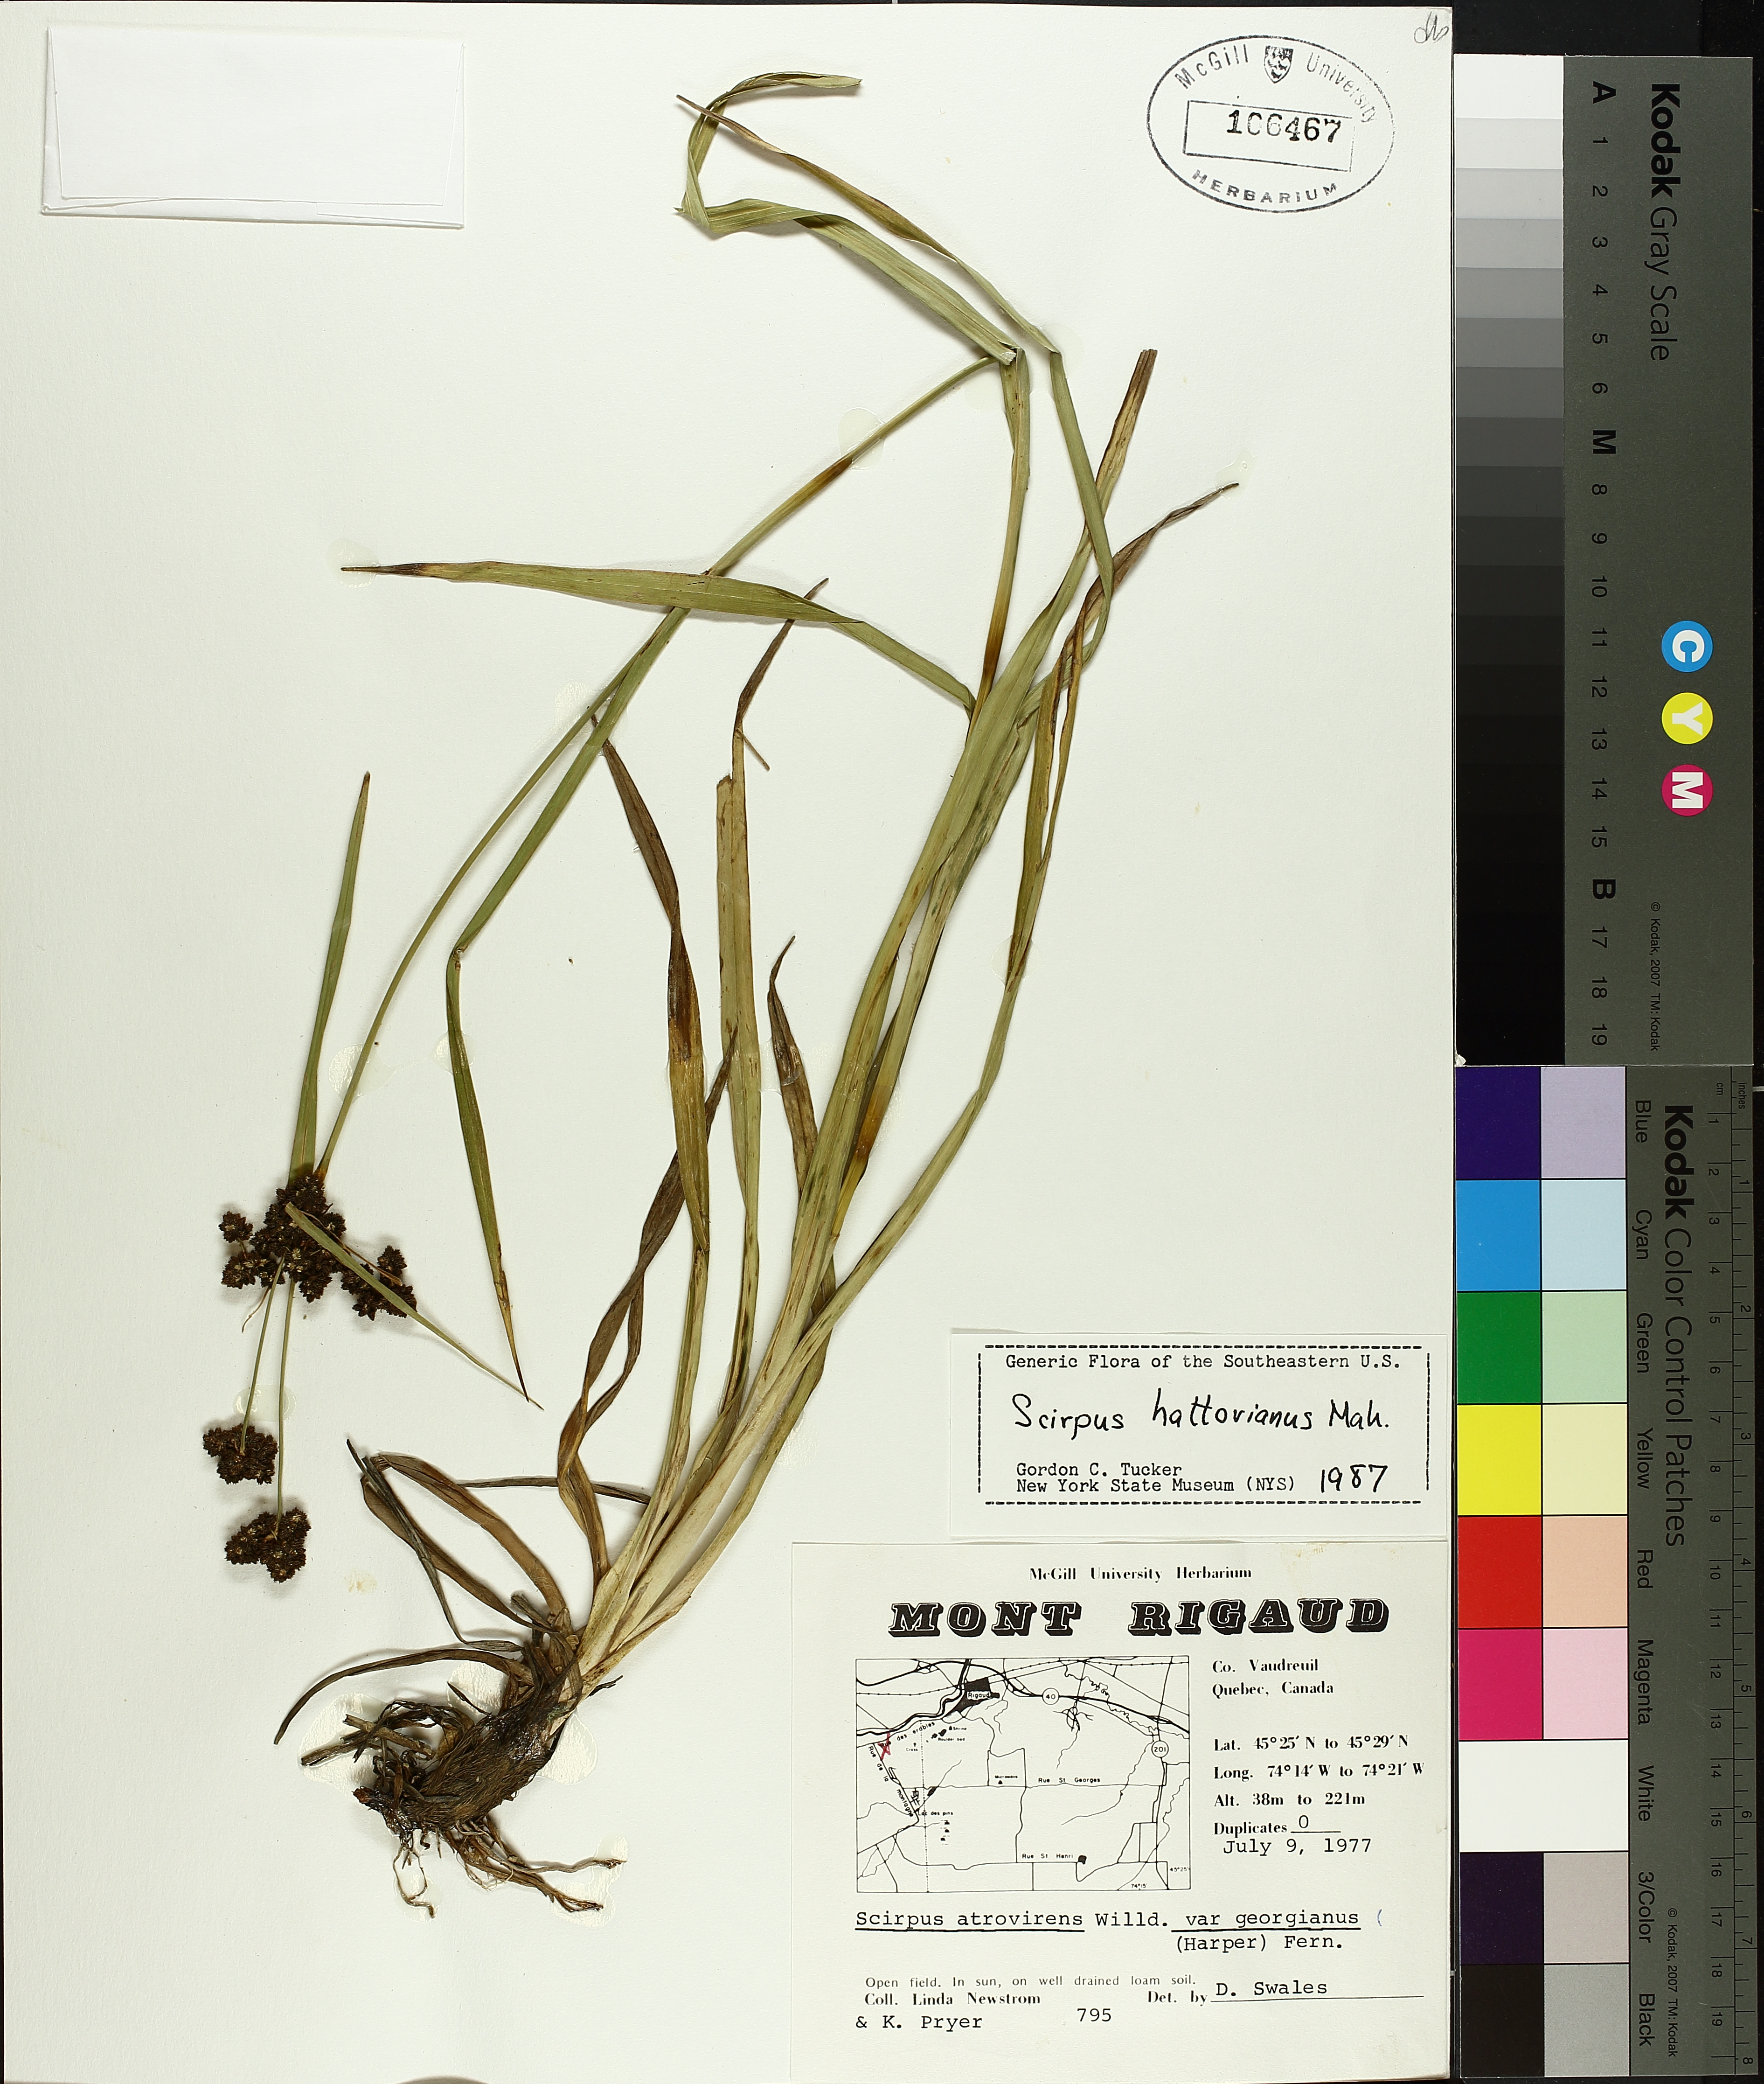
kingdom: Plantae
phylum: Tracheophyta
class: Liliopsida
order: Poales
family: Cyperaceae
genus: Scirpus
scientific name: Scirpus hattorianus
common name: Early dark-green bulrush
